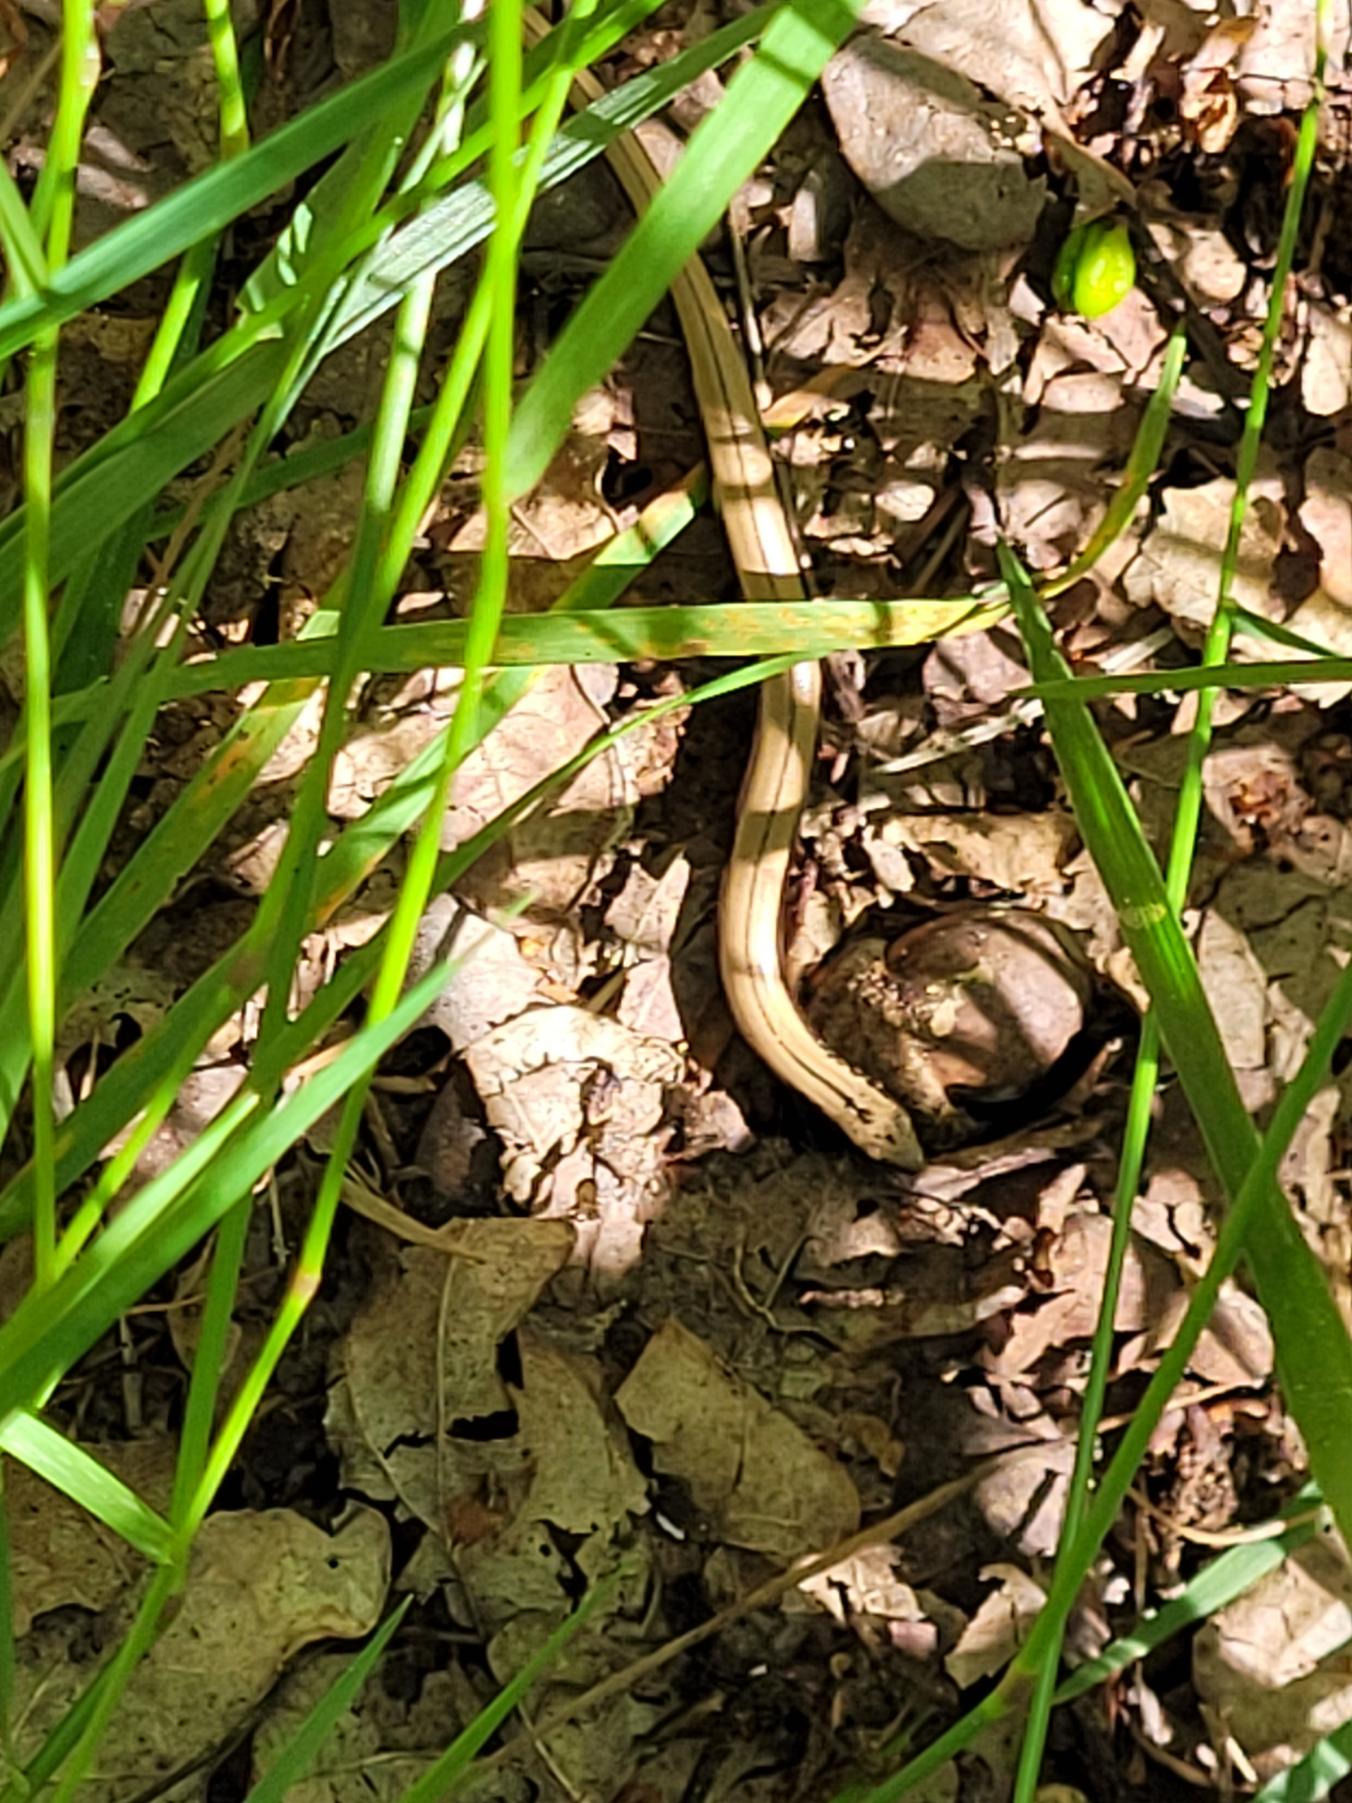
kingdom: Animalia
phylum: Chordata
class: Squamata
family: Anguidae
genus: Anguis
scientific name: Anguis fragilis
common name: Stålorm
